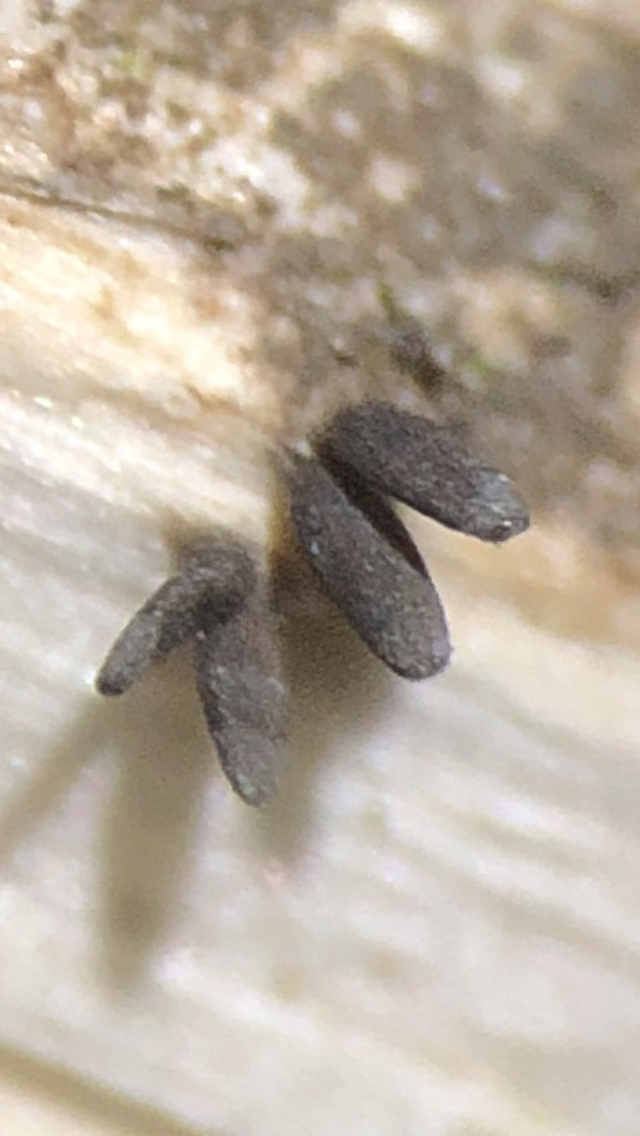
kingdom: Fungi
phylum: Ascomycota
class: Dothideomycetes
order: Acrospermales
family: Acrospermaceae
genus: Acrospermum
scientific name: Acrospermum compressum
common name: nælde-stængeltunge
